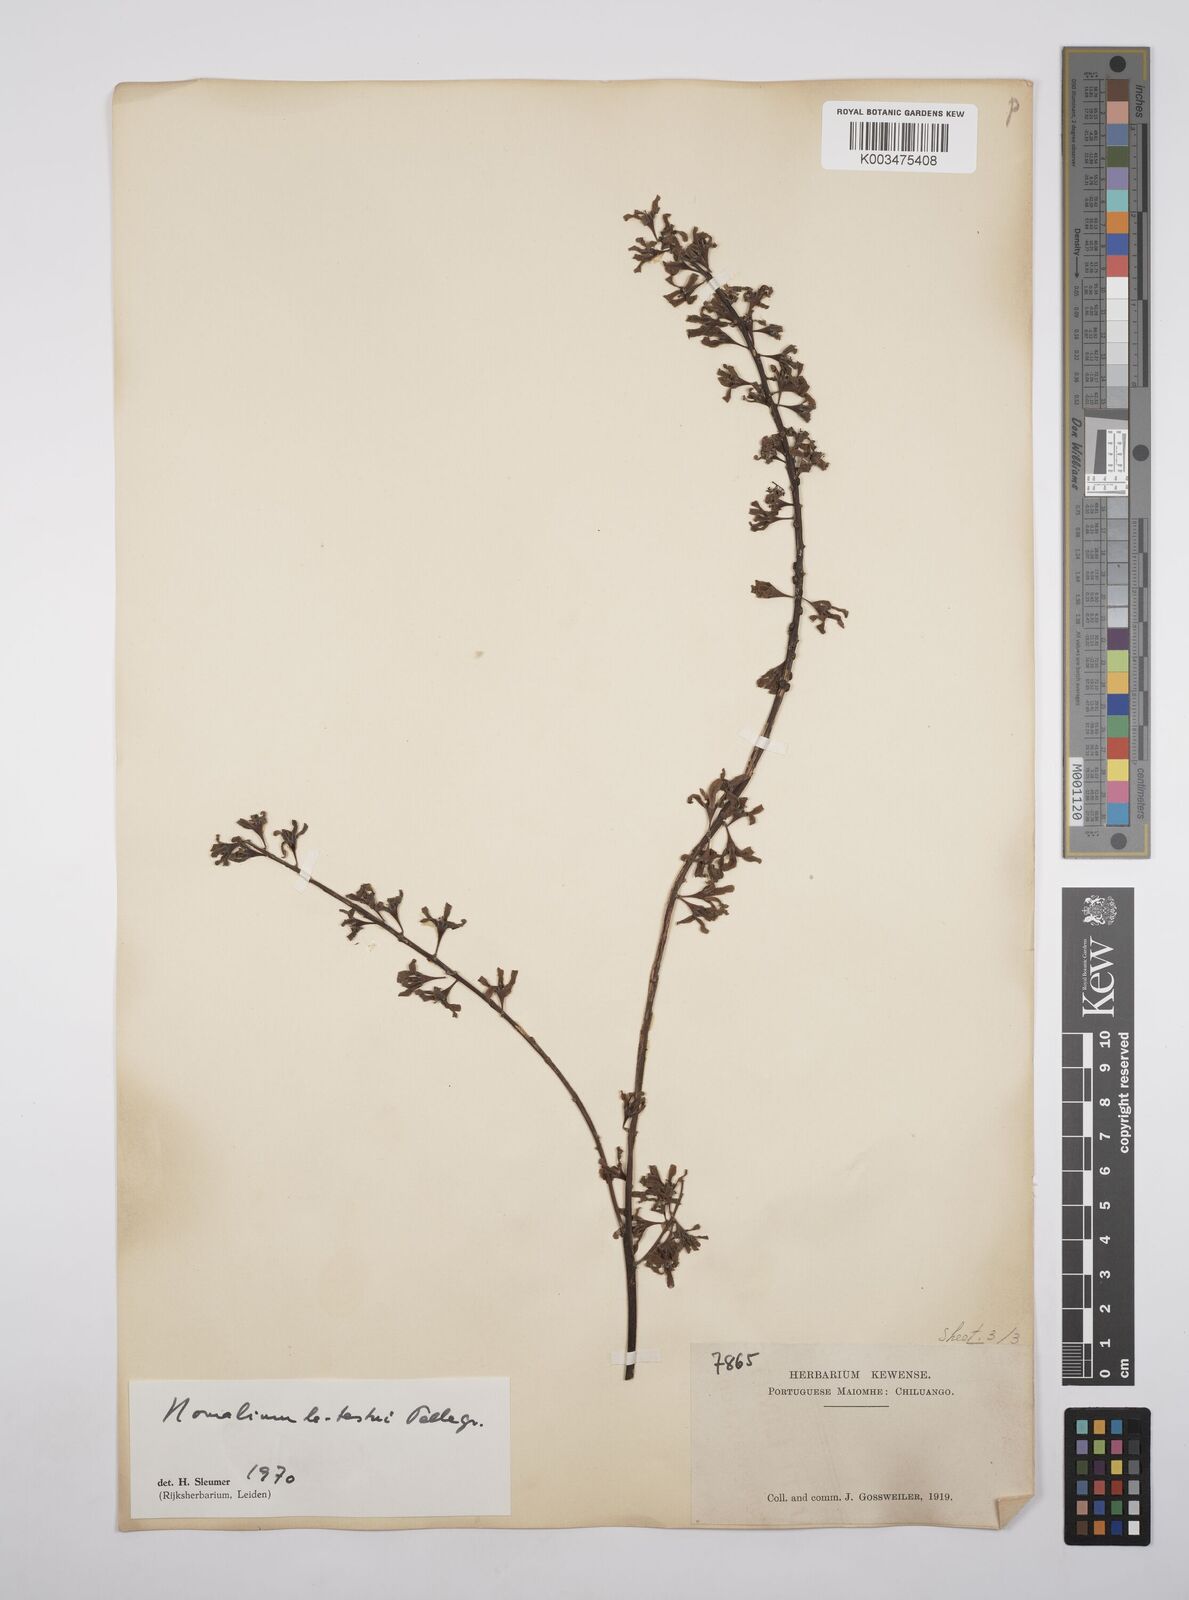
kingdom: Plantae
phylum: Tracheophyta
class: Magnoliopsida
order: Malpighiales
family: Salicaceae
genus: Homalium
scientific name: Homalium letestui
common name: African homalium
